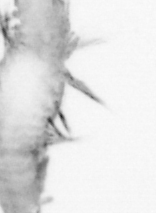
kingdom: Animalia
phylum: Annelida
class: Polychaeta
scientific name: Polychaeta
